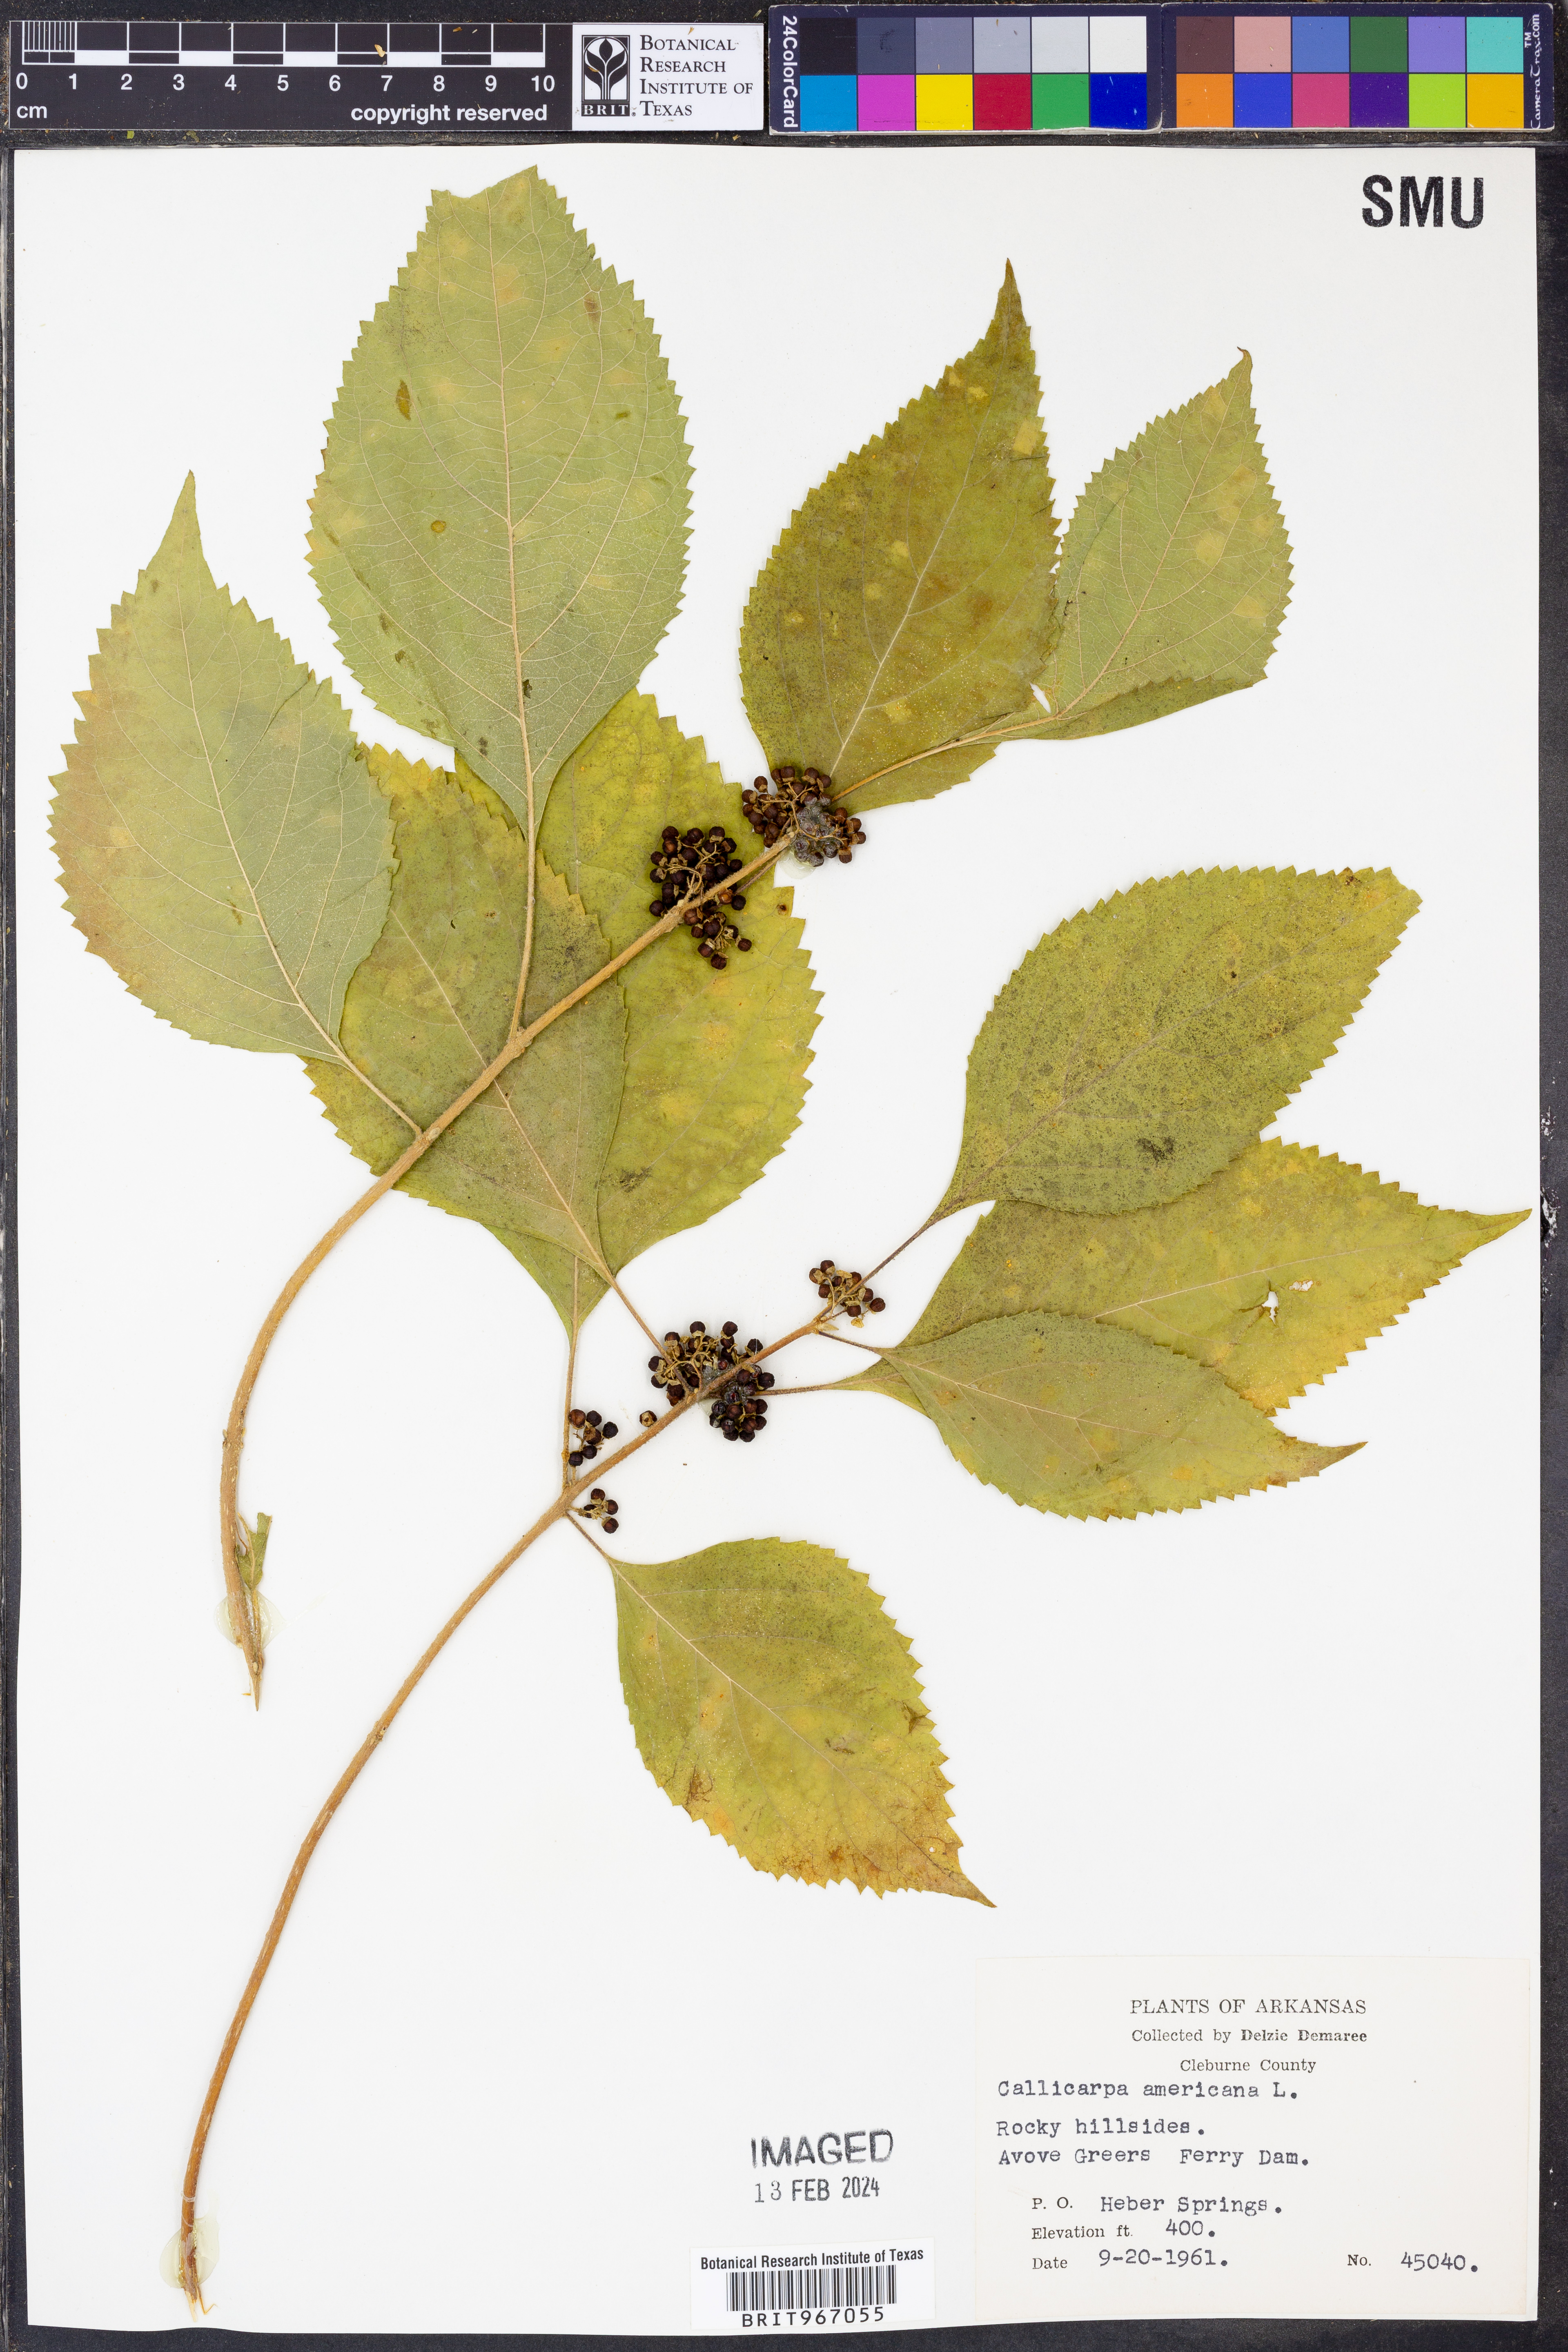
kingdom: Plantae
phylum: Tracheophyta
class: Magnoliopsida
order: Lamiales
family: Lamiaceae
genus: Callicarpa
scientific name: Callicarpa americana
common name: American beautyberry
